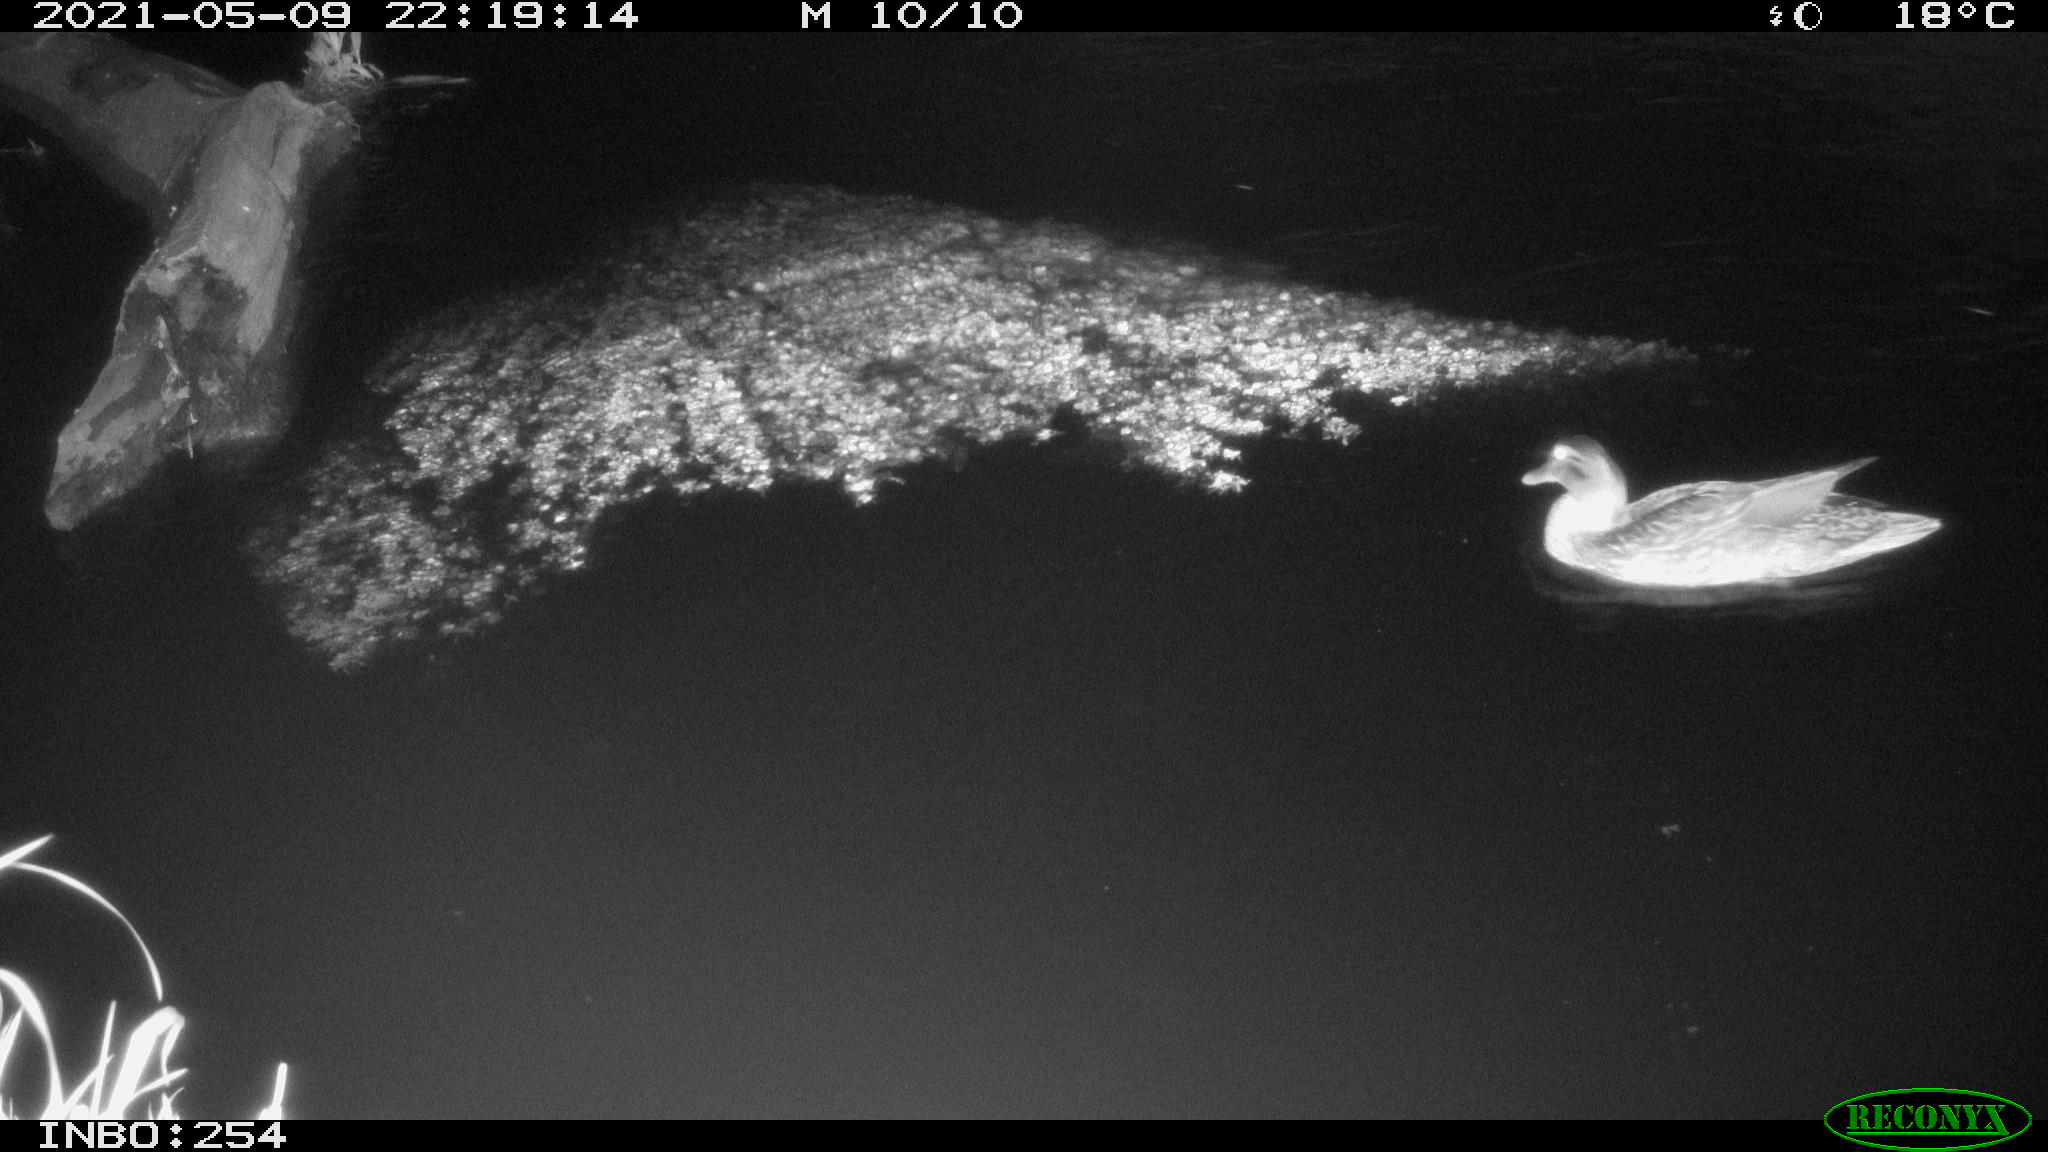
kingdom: Animalia
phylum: Chordata
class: Aves
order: Anseriformes
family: Anatidae
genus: Anas
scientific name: Anas platyrhynchos
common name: Mallard
